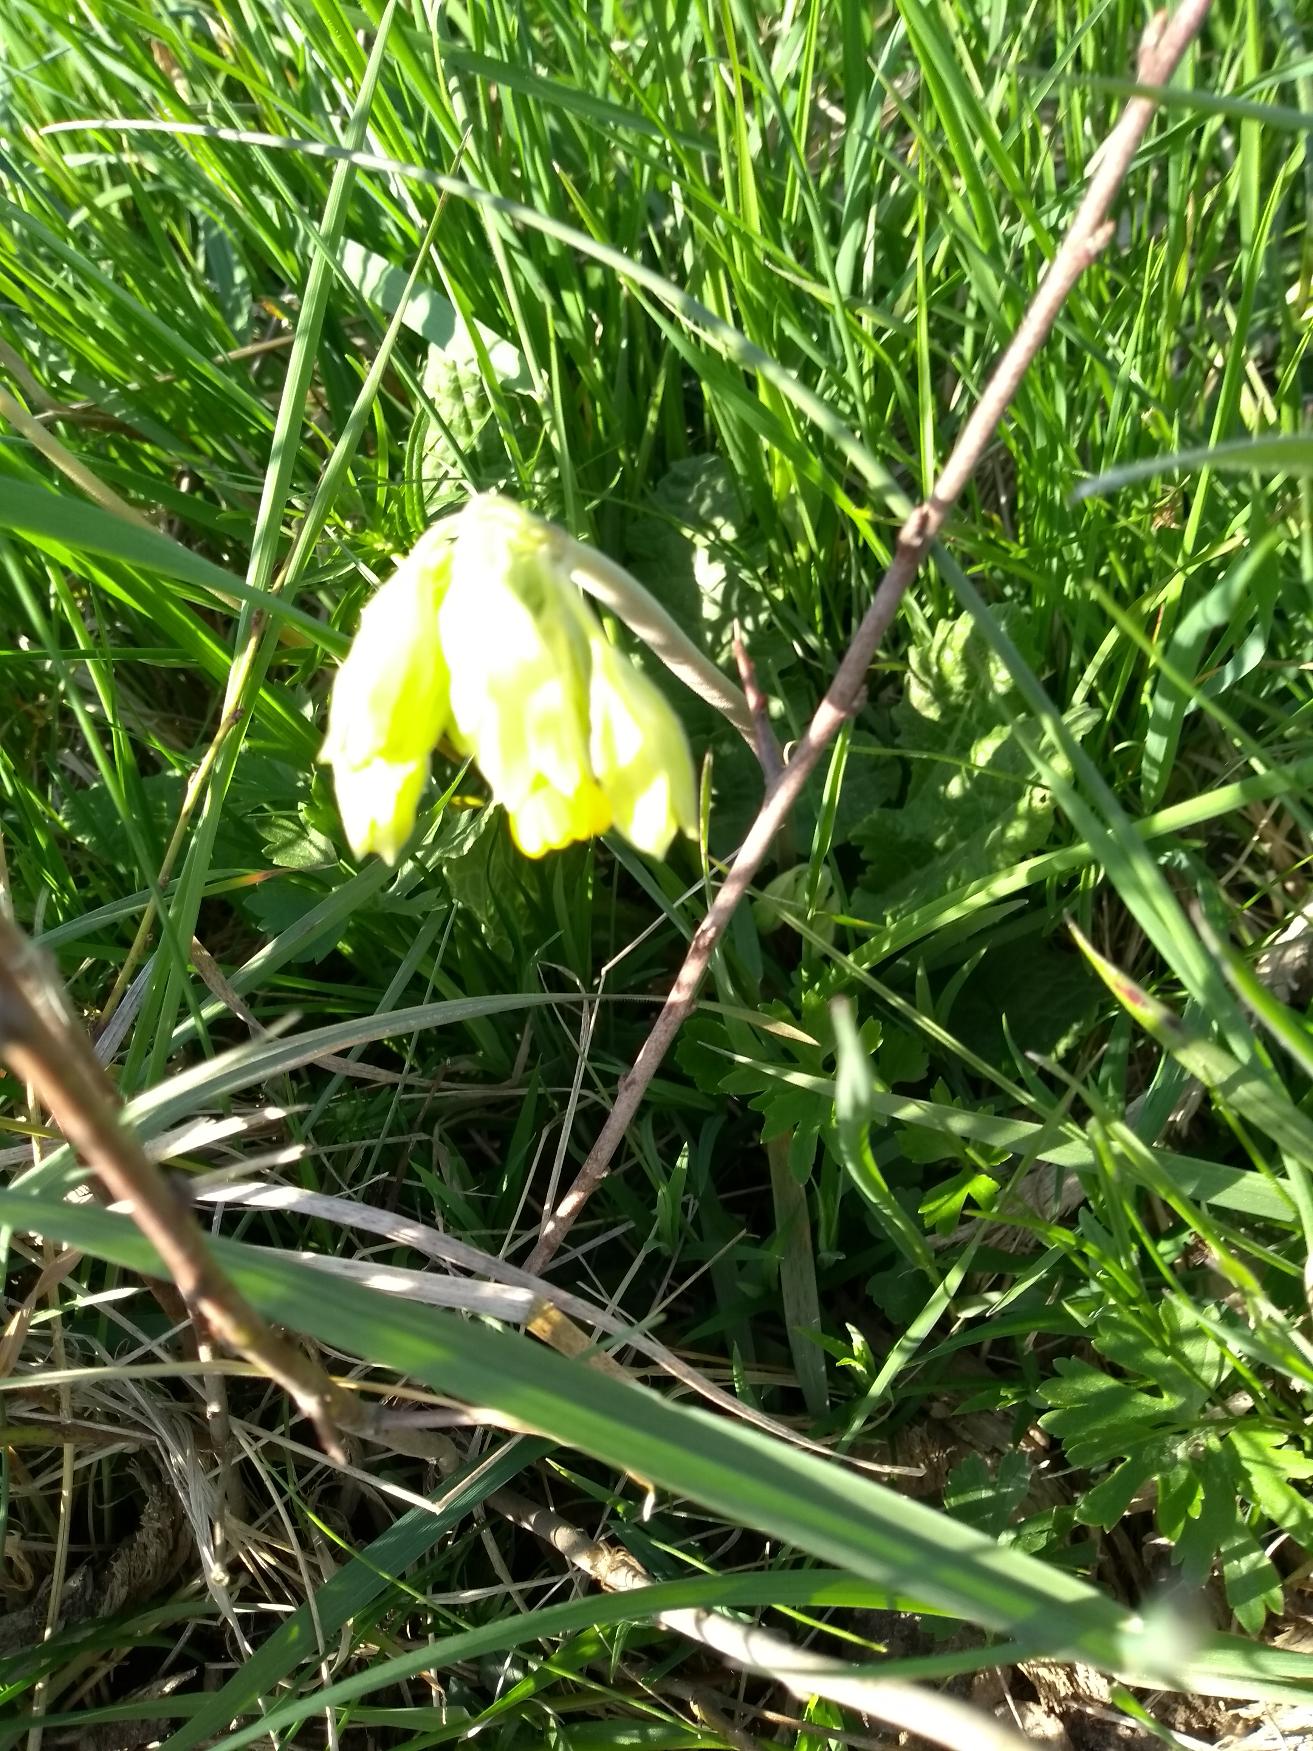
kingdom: Plantae
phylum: Tracheophyta
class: Magnoliopsida
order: Ericales
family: Primulaceae
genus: Primula
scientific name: Primula veris
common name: Hulkravet kodriver
